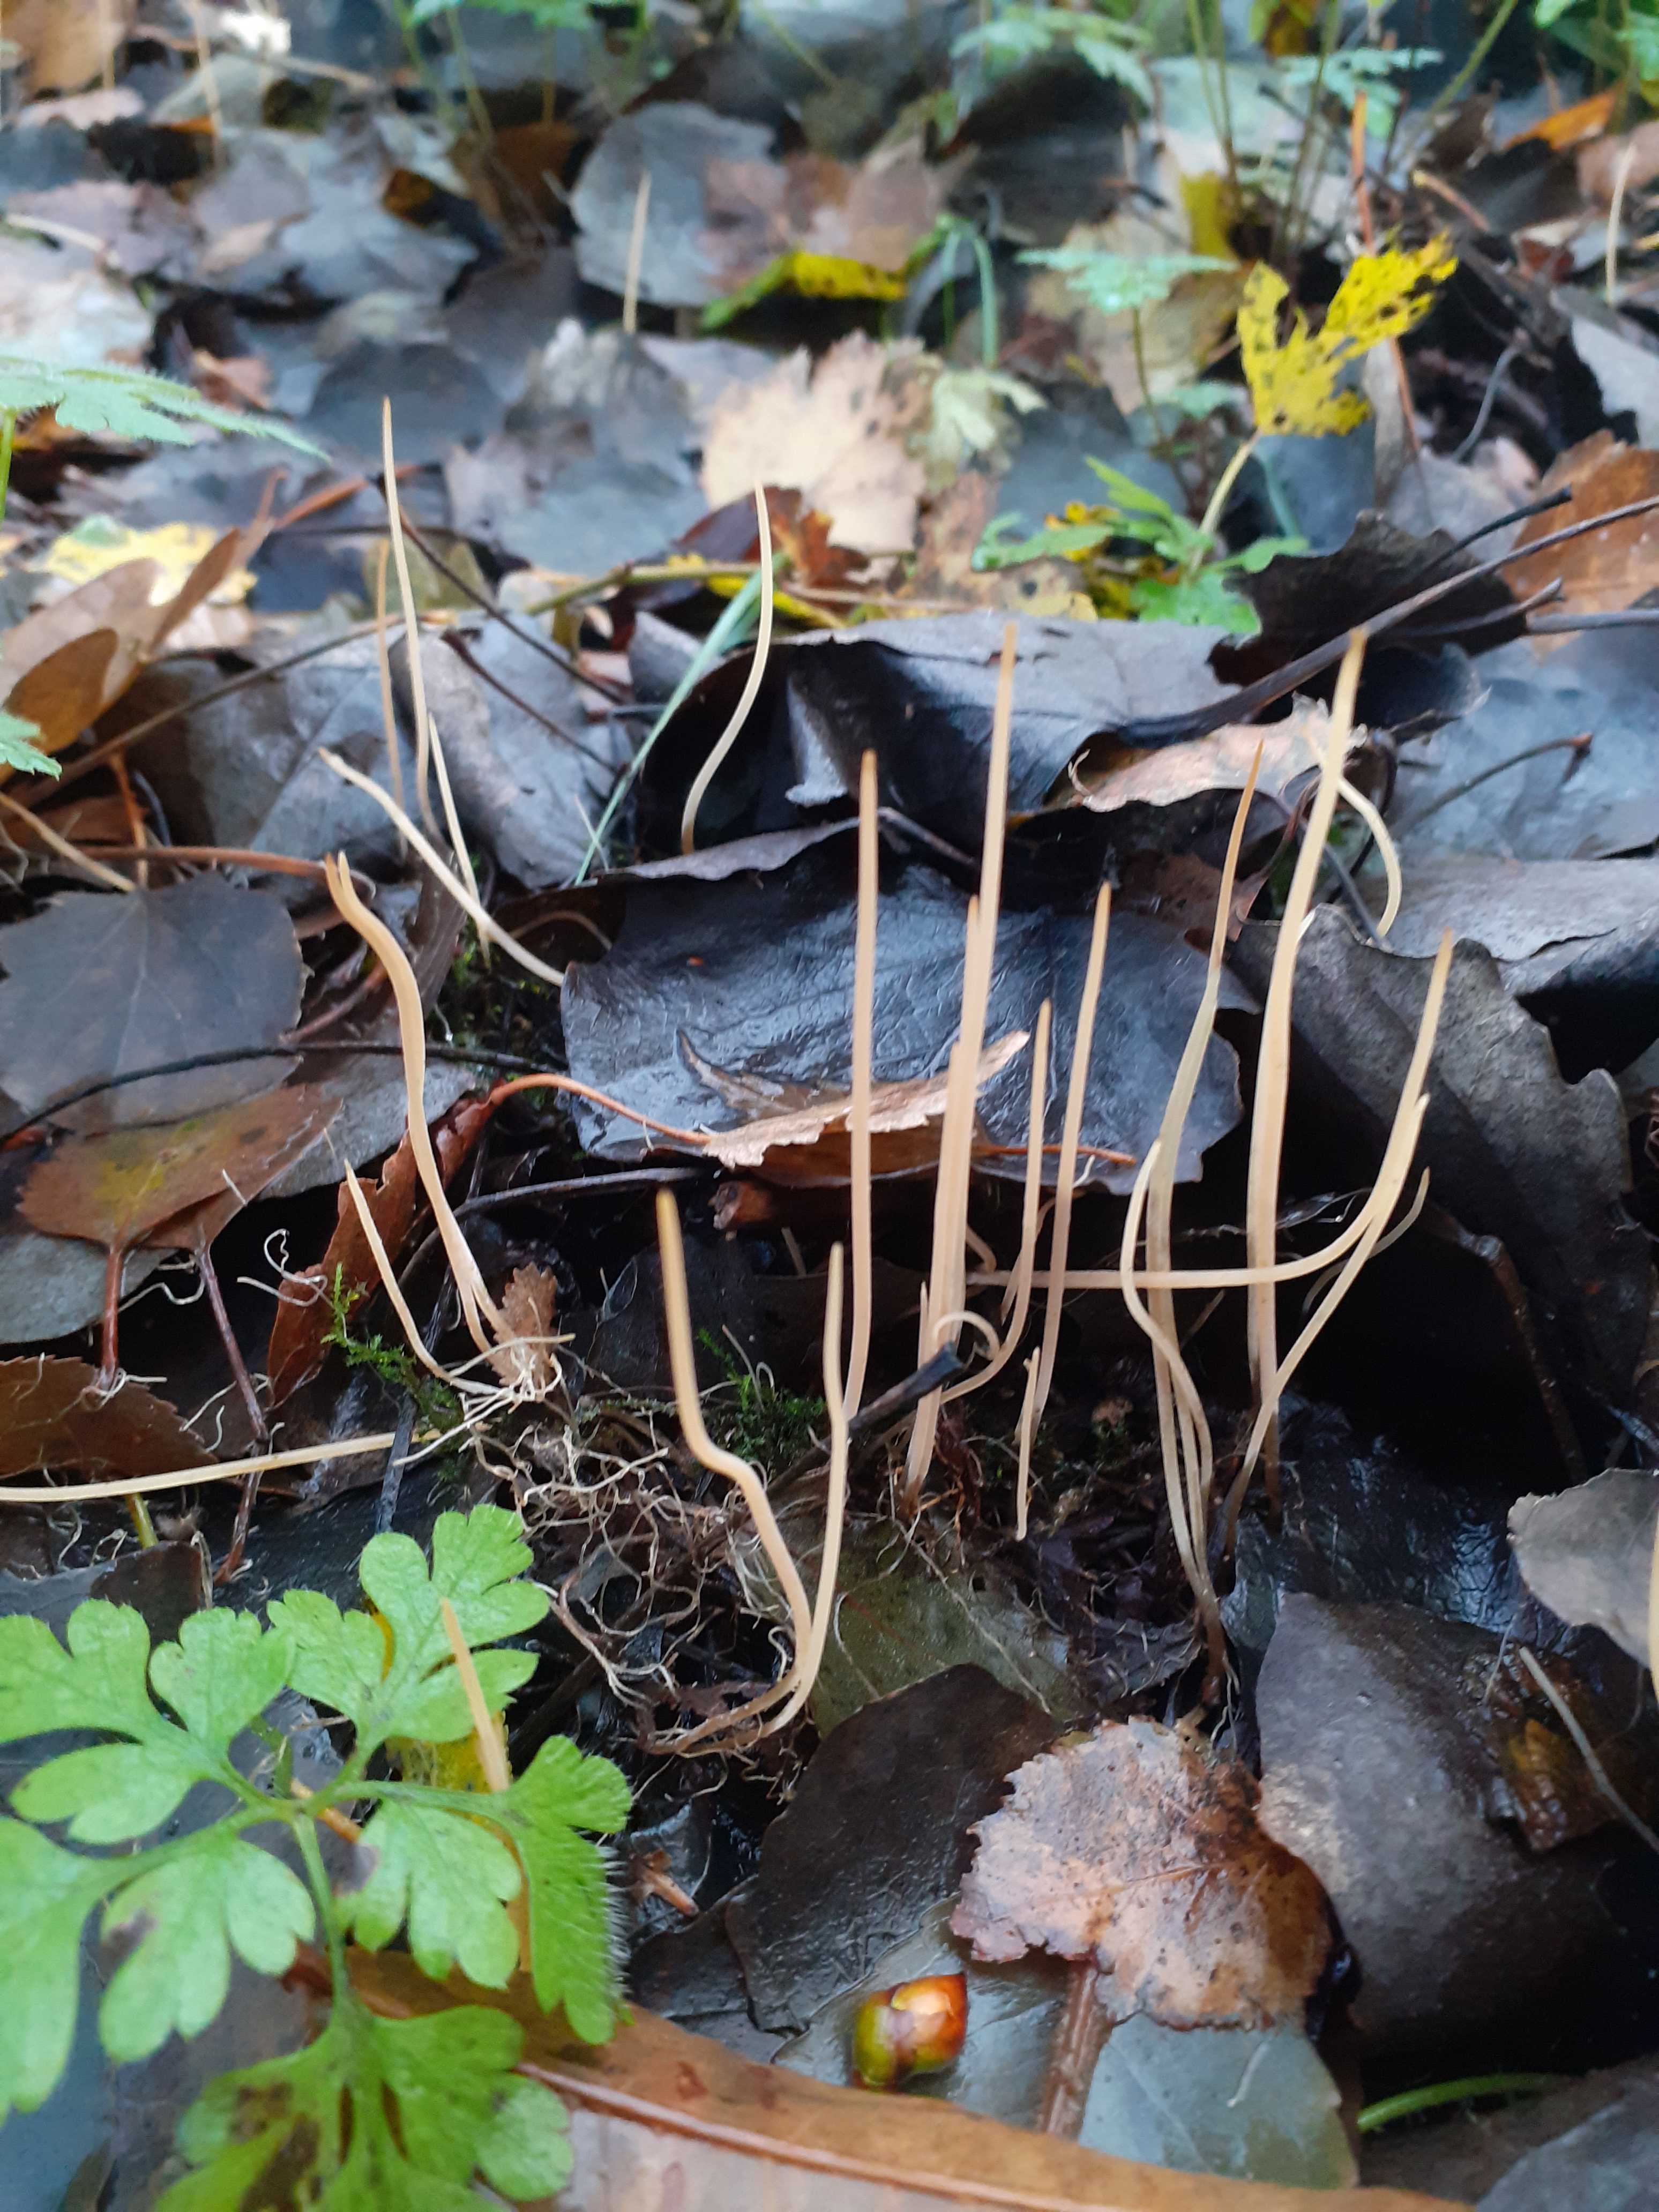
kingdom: Fungi
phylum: Basidiomycota
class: Agaricomycetes
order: Agaricales
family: Typhulaceae
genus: Typhula
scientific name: Typhula juncea
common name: trådagtig rørkølle
